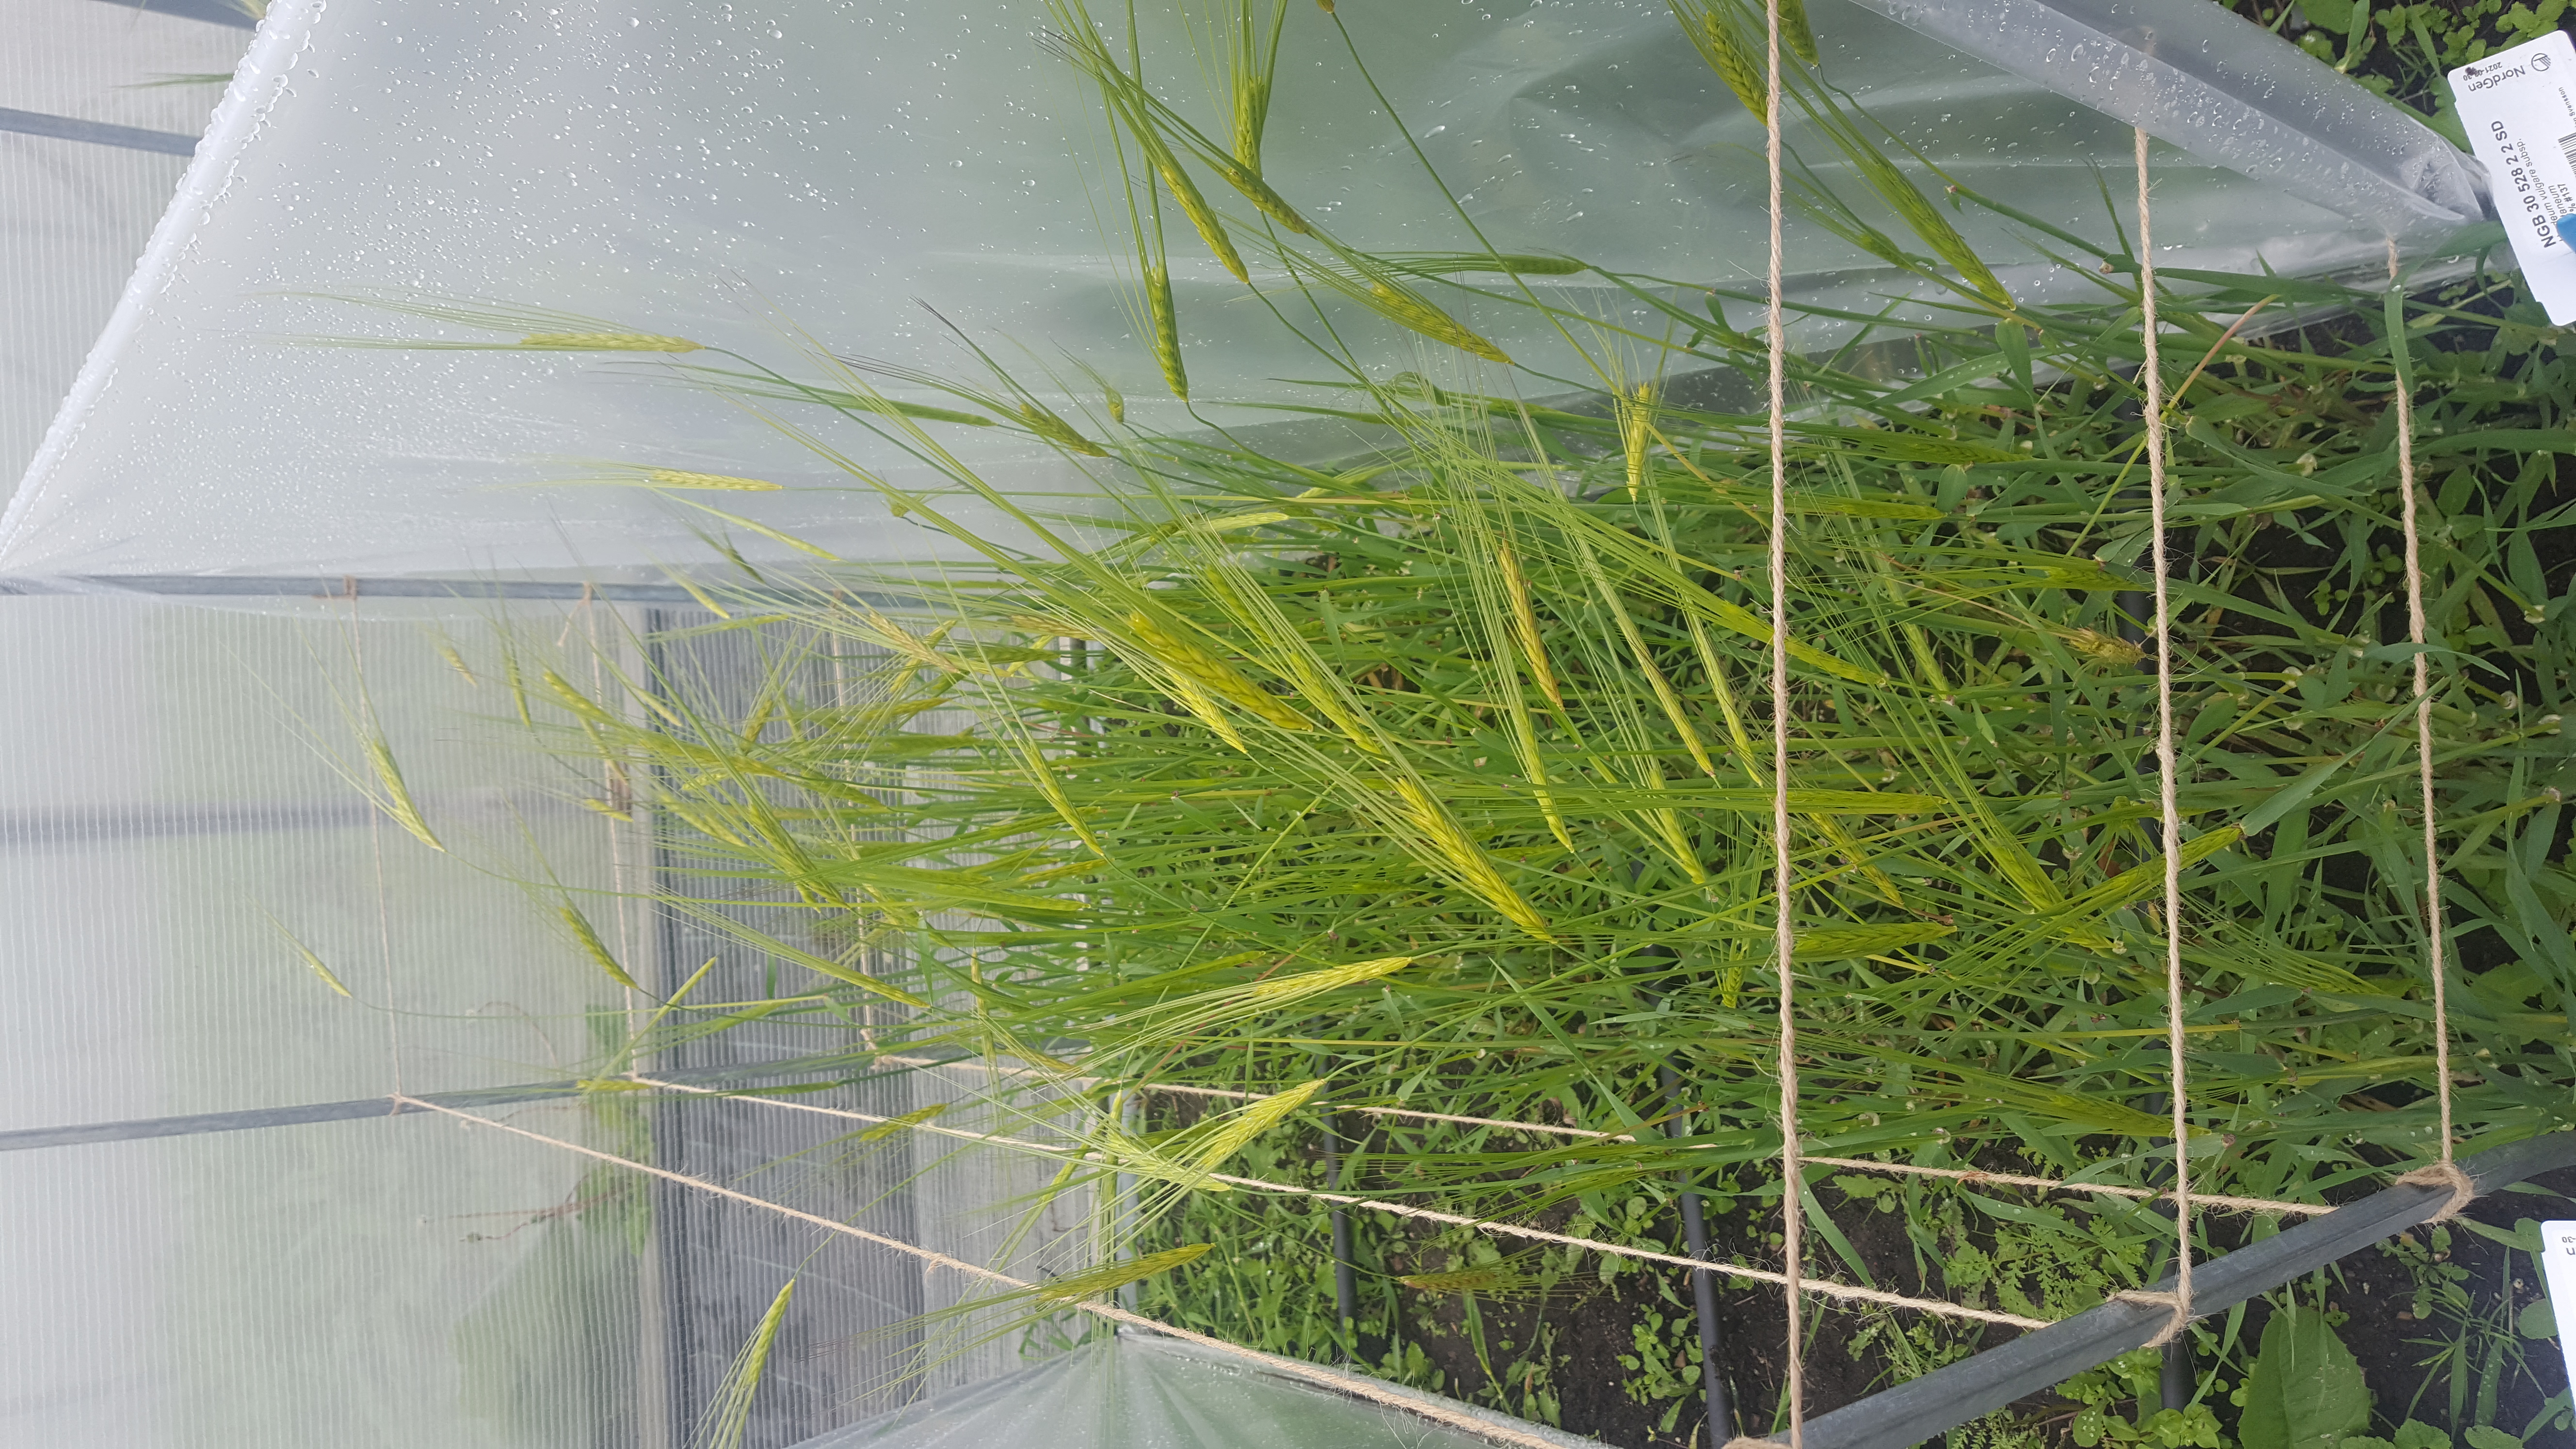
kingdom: Plantae
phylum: Tracheophyta
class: Liliopsida
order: Poales
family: Poaceae
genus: Hordeum
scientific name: Hordeum spontaneum
